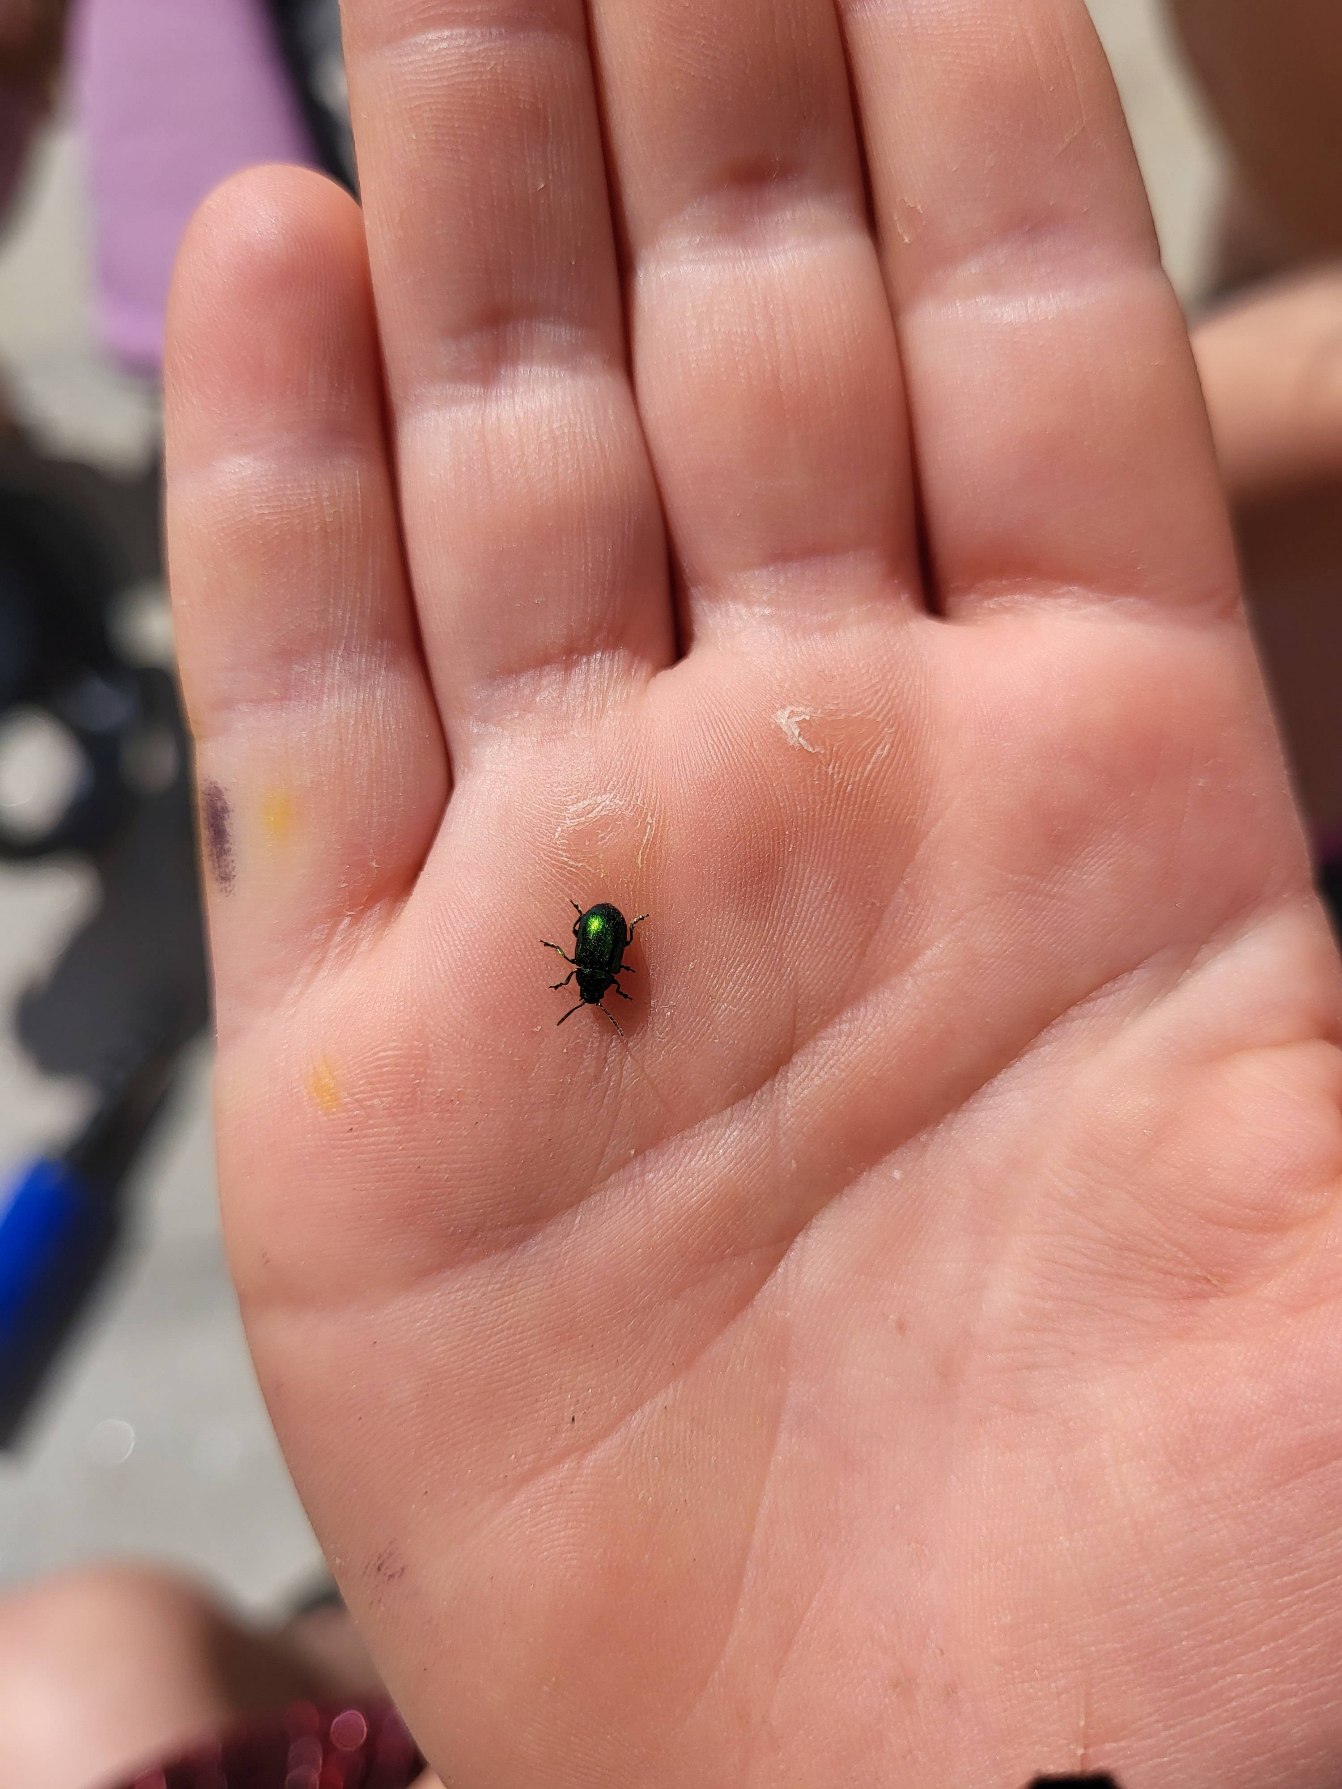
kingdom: Animalia
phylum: Arthropoda
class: Insecta
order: Coleoptera
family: Chrysomelidae
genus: Gastrophysa
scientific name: Gastrophysa viridula
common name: Skræppebladbille
